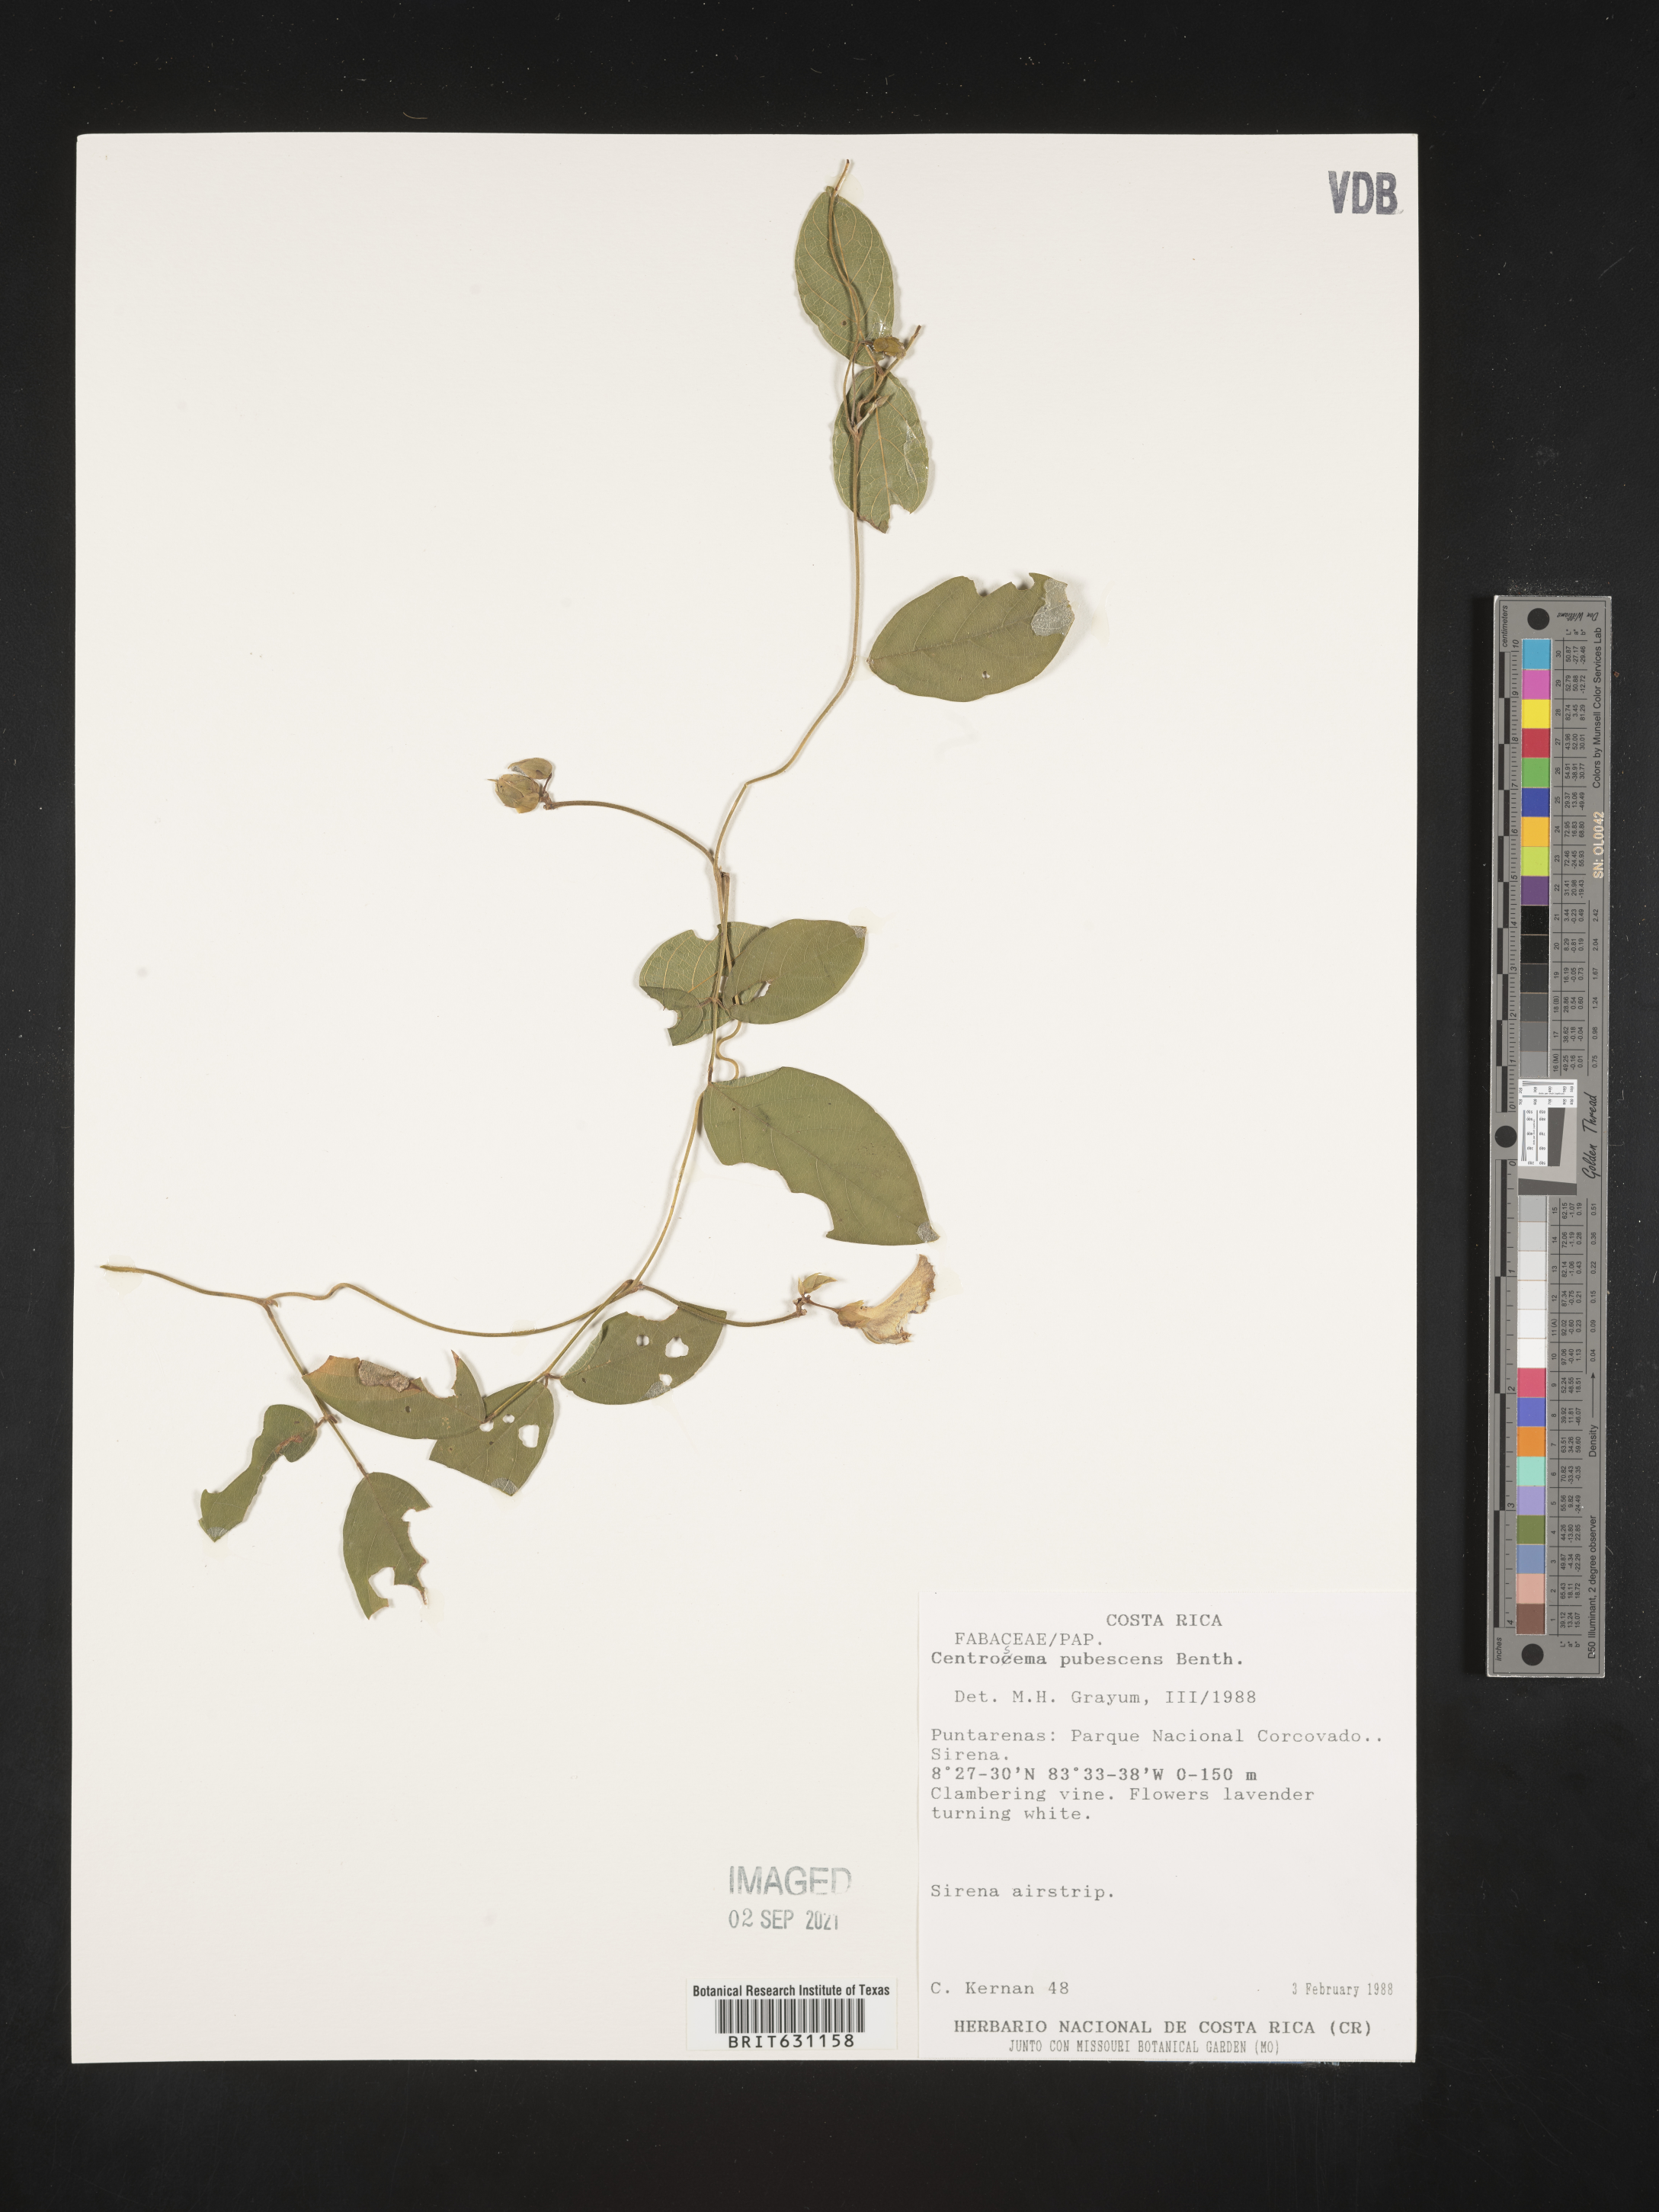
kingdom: Plantae
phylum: Tracheophyta
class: Magnoliopsida
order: Fabales
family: Fabaceae
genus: Centrosema
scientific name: Centrosema pubescens
